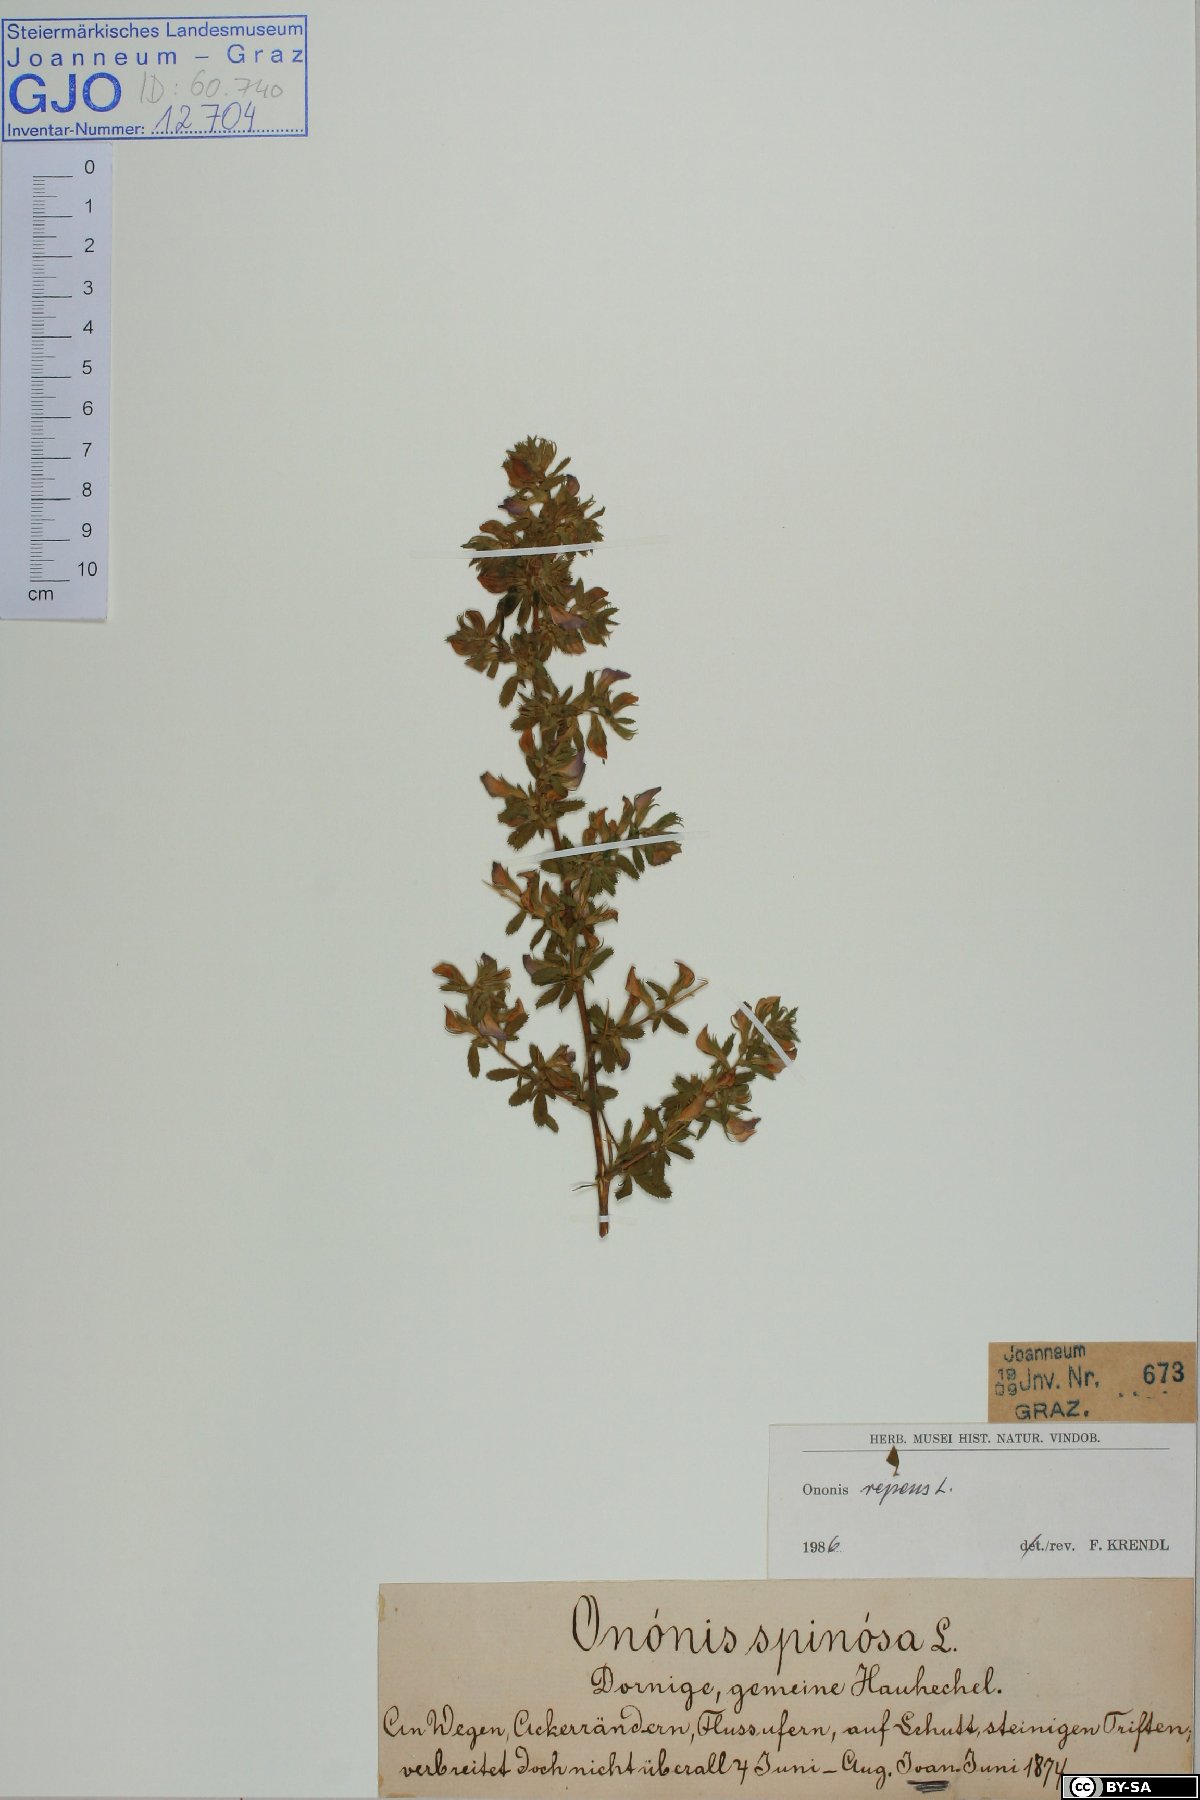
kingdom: Plantae
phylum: Tracheophyta
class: Magnoliopsida
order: Fabales
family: Fabaceae
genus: Ononis
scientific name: Ononis spinosa
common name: Spiny restharrow
